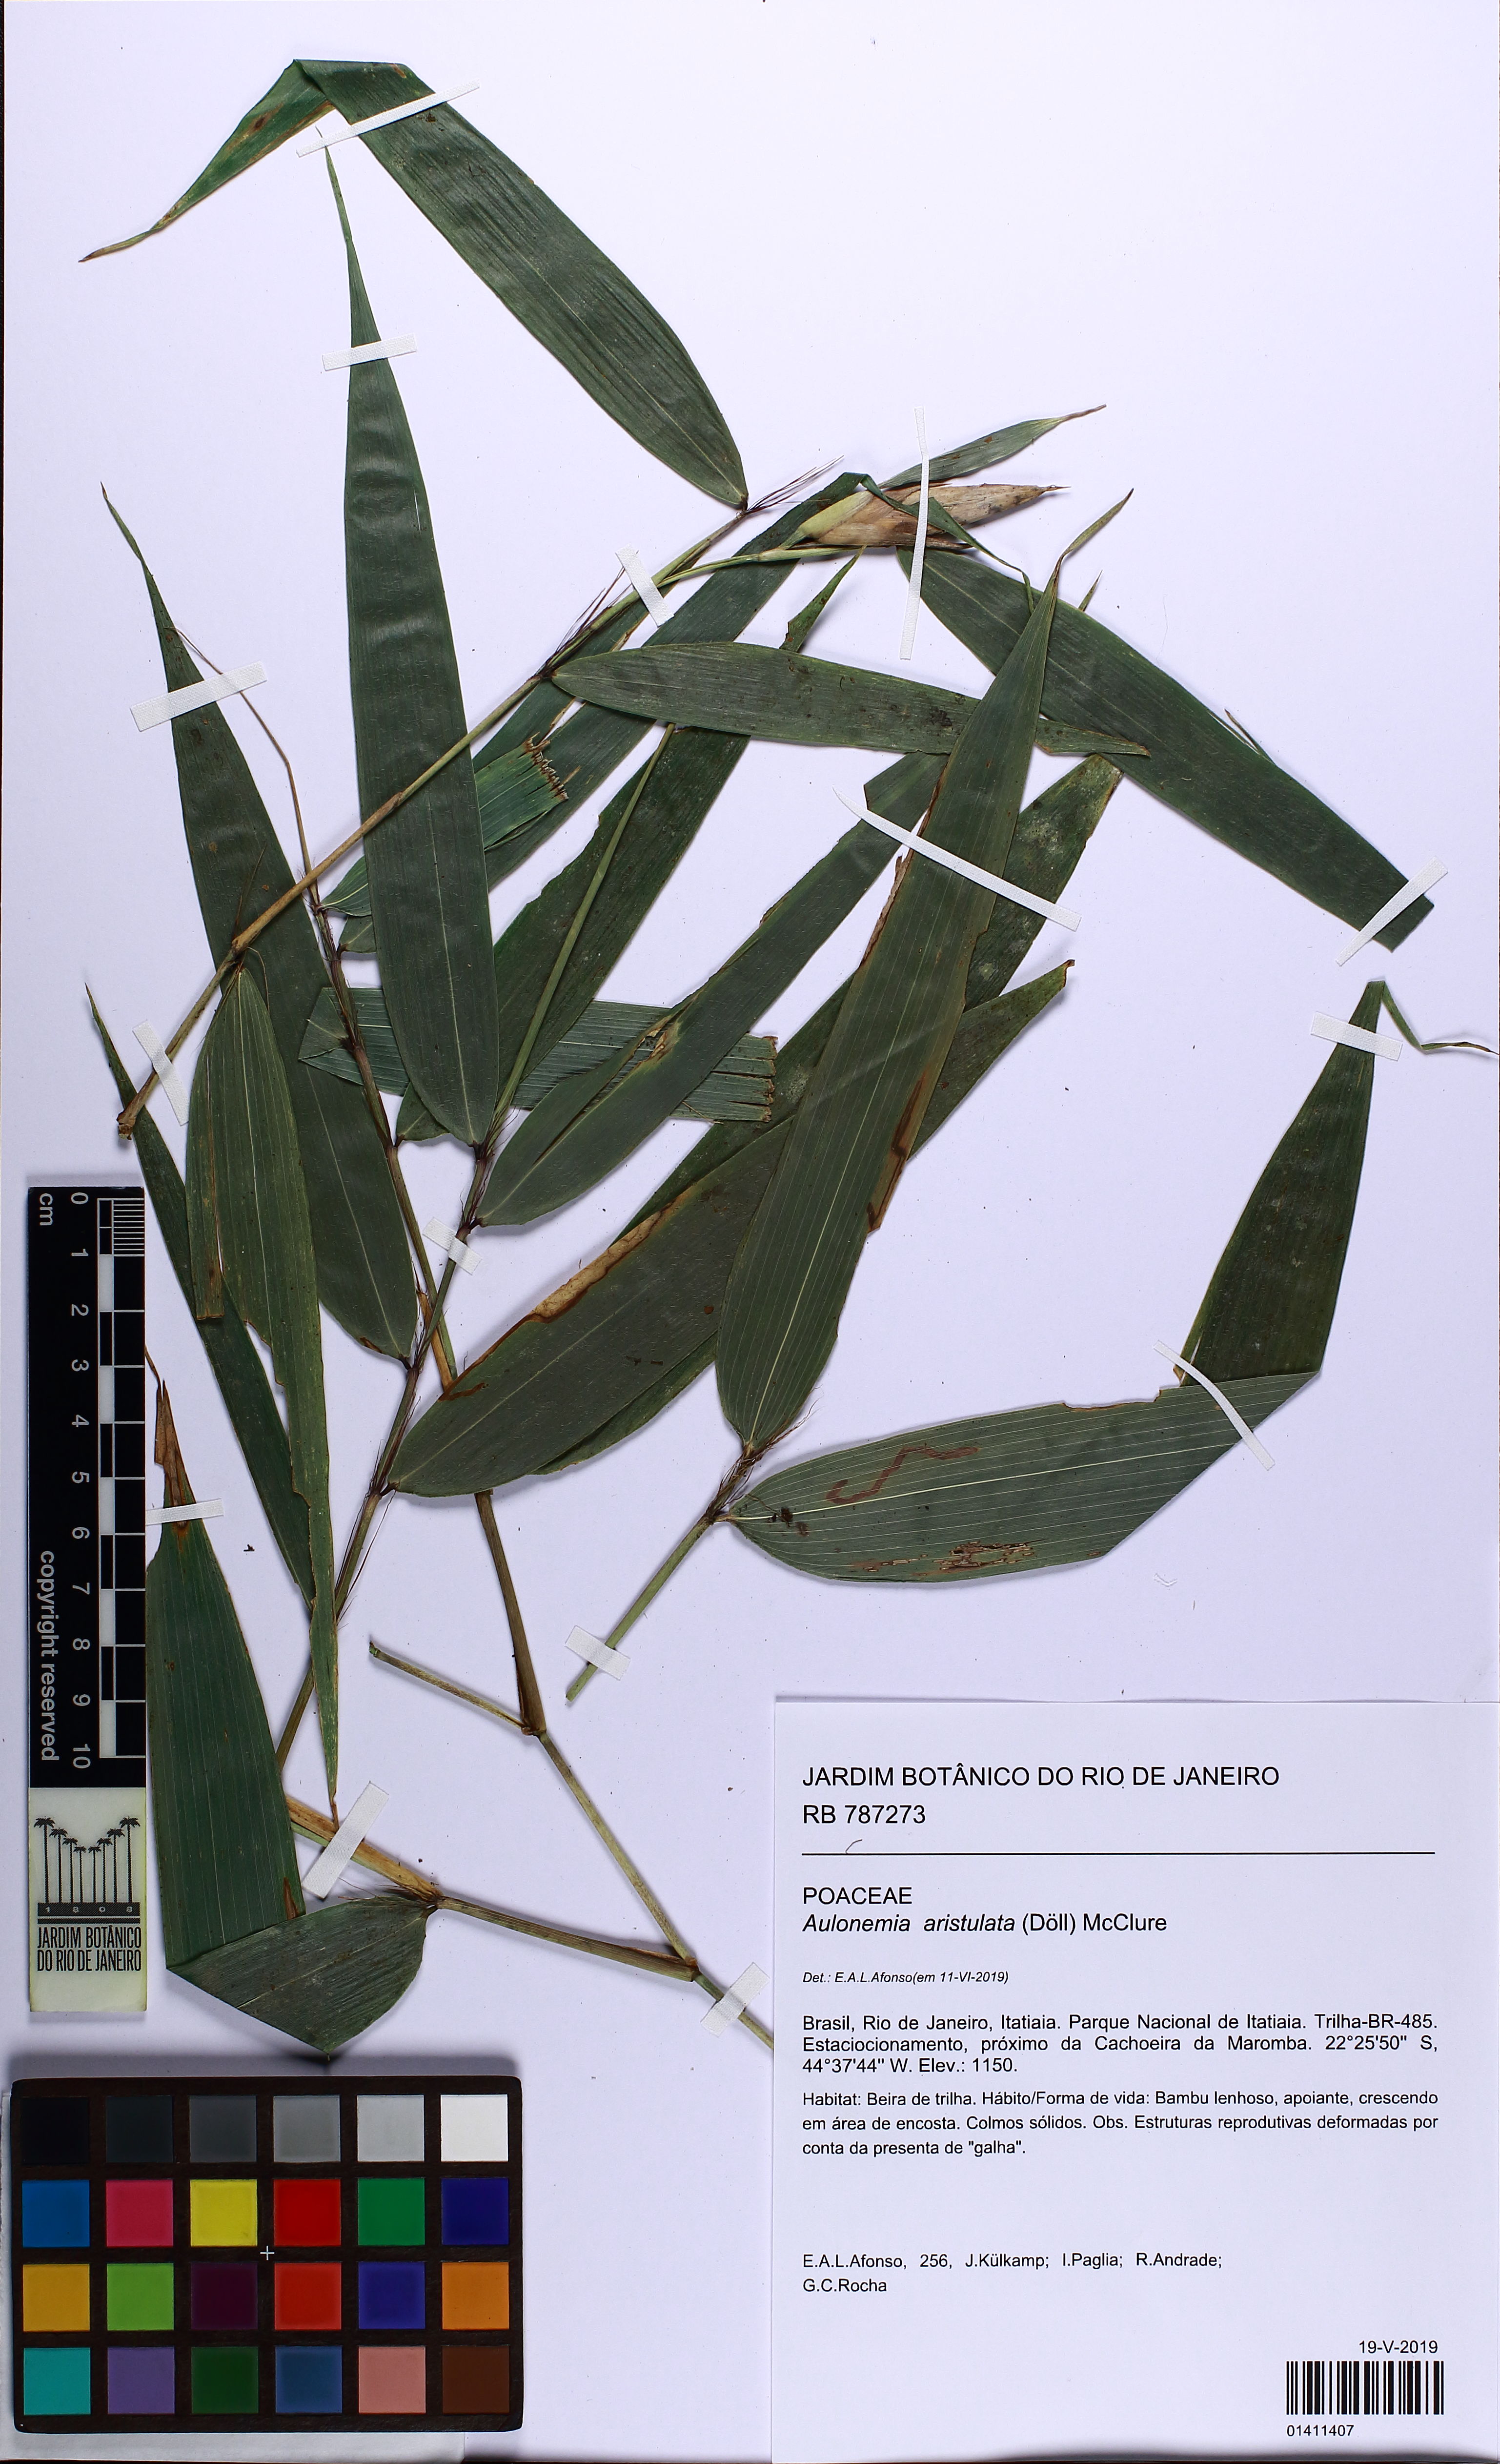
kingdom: Plantae
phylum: Tracheophyta
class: Liliopsida
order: Poales
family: Poaceae
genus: Aulonemia
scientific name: Aulonemia aristulata
